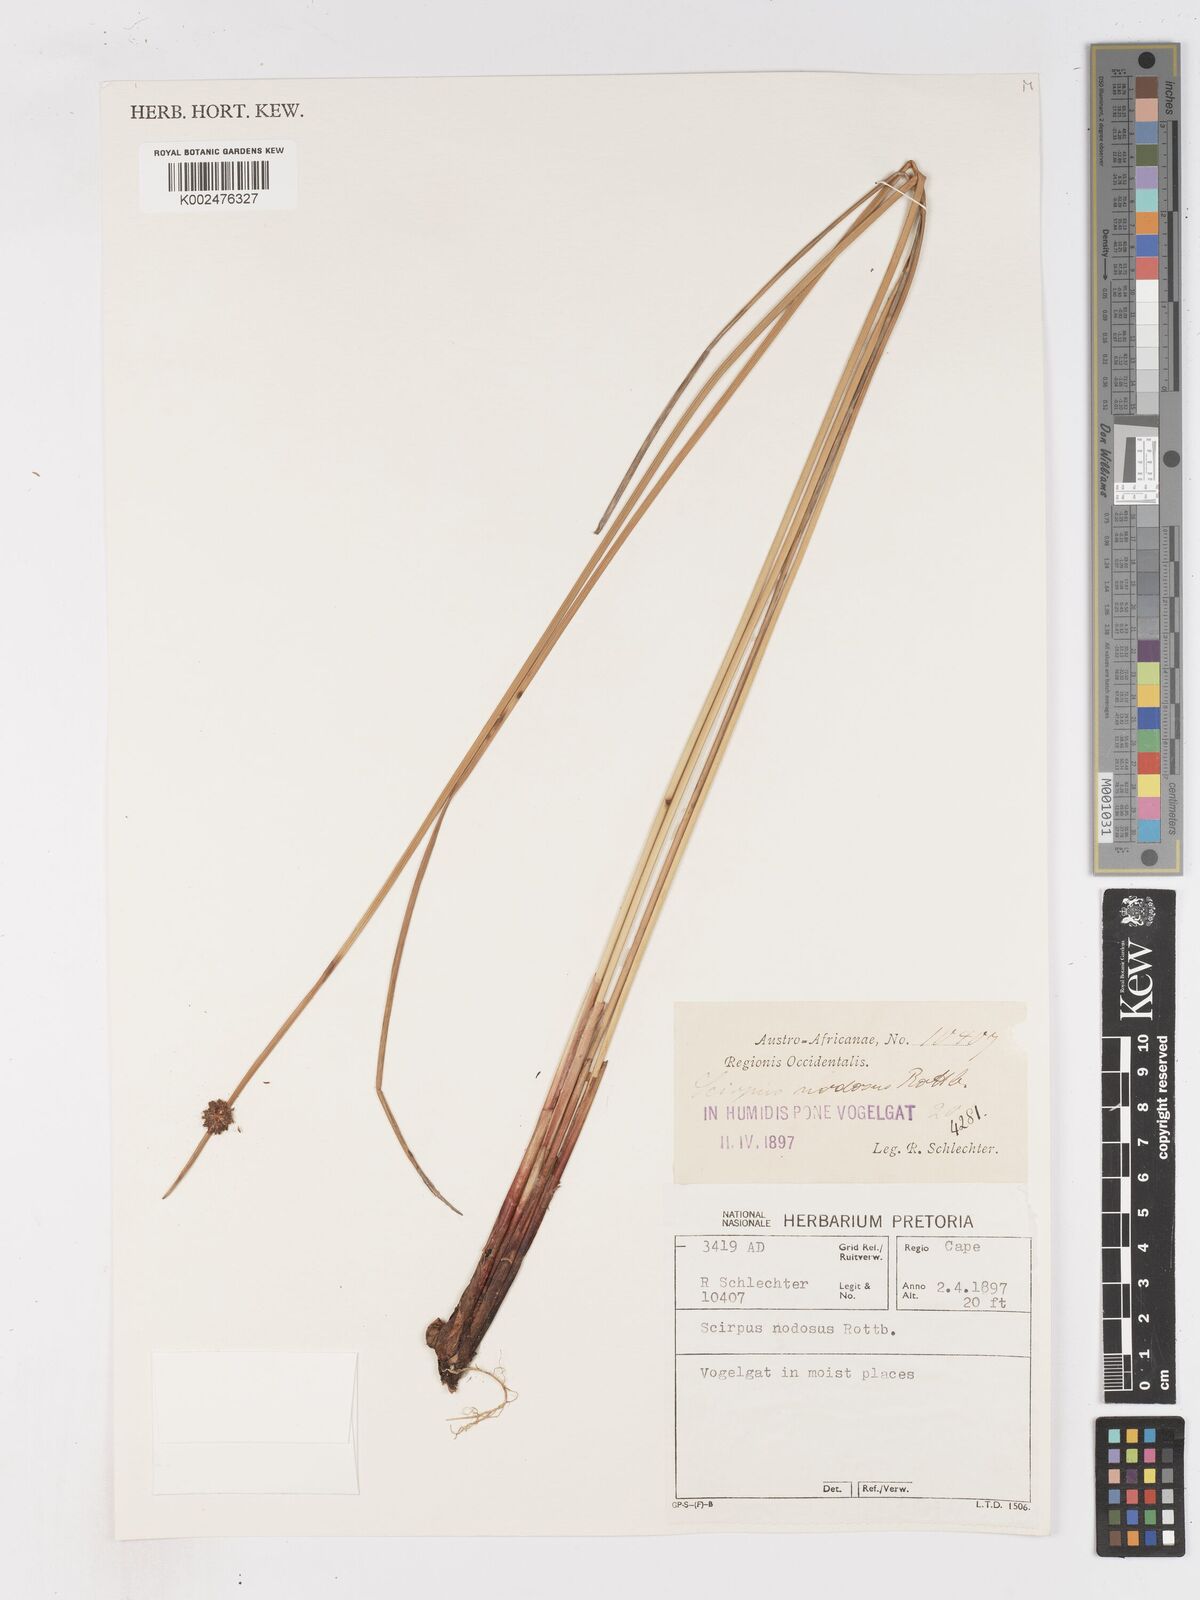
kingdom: Plantae
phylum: Tracheophyta
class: Liliopsida
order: Poales
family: Cyperaceae
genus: Ficinia
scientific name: Ficinia nodosa
